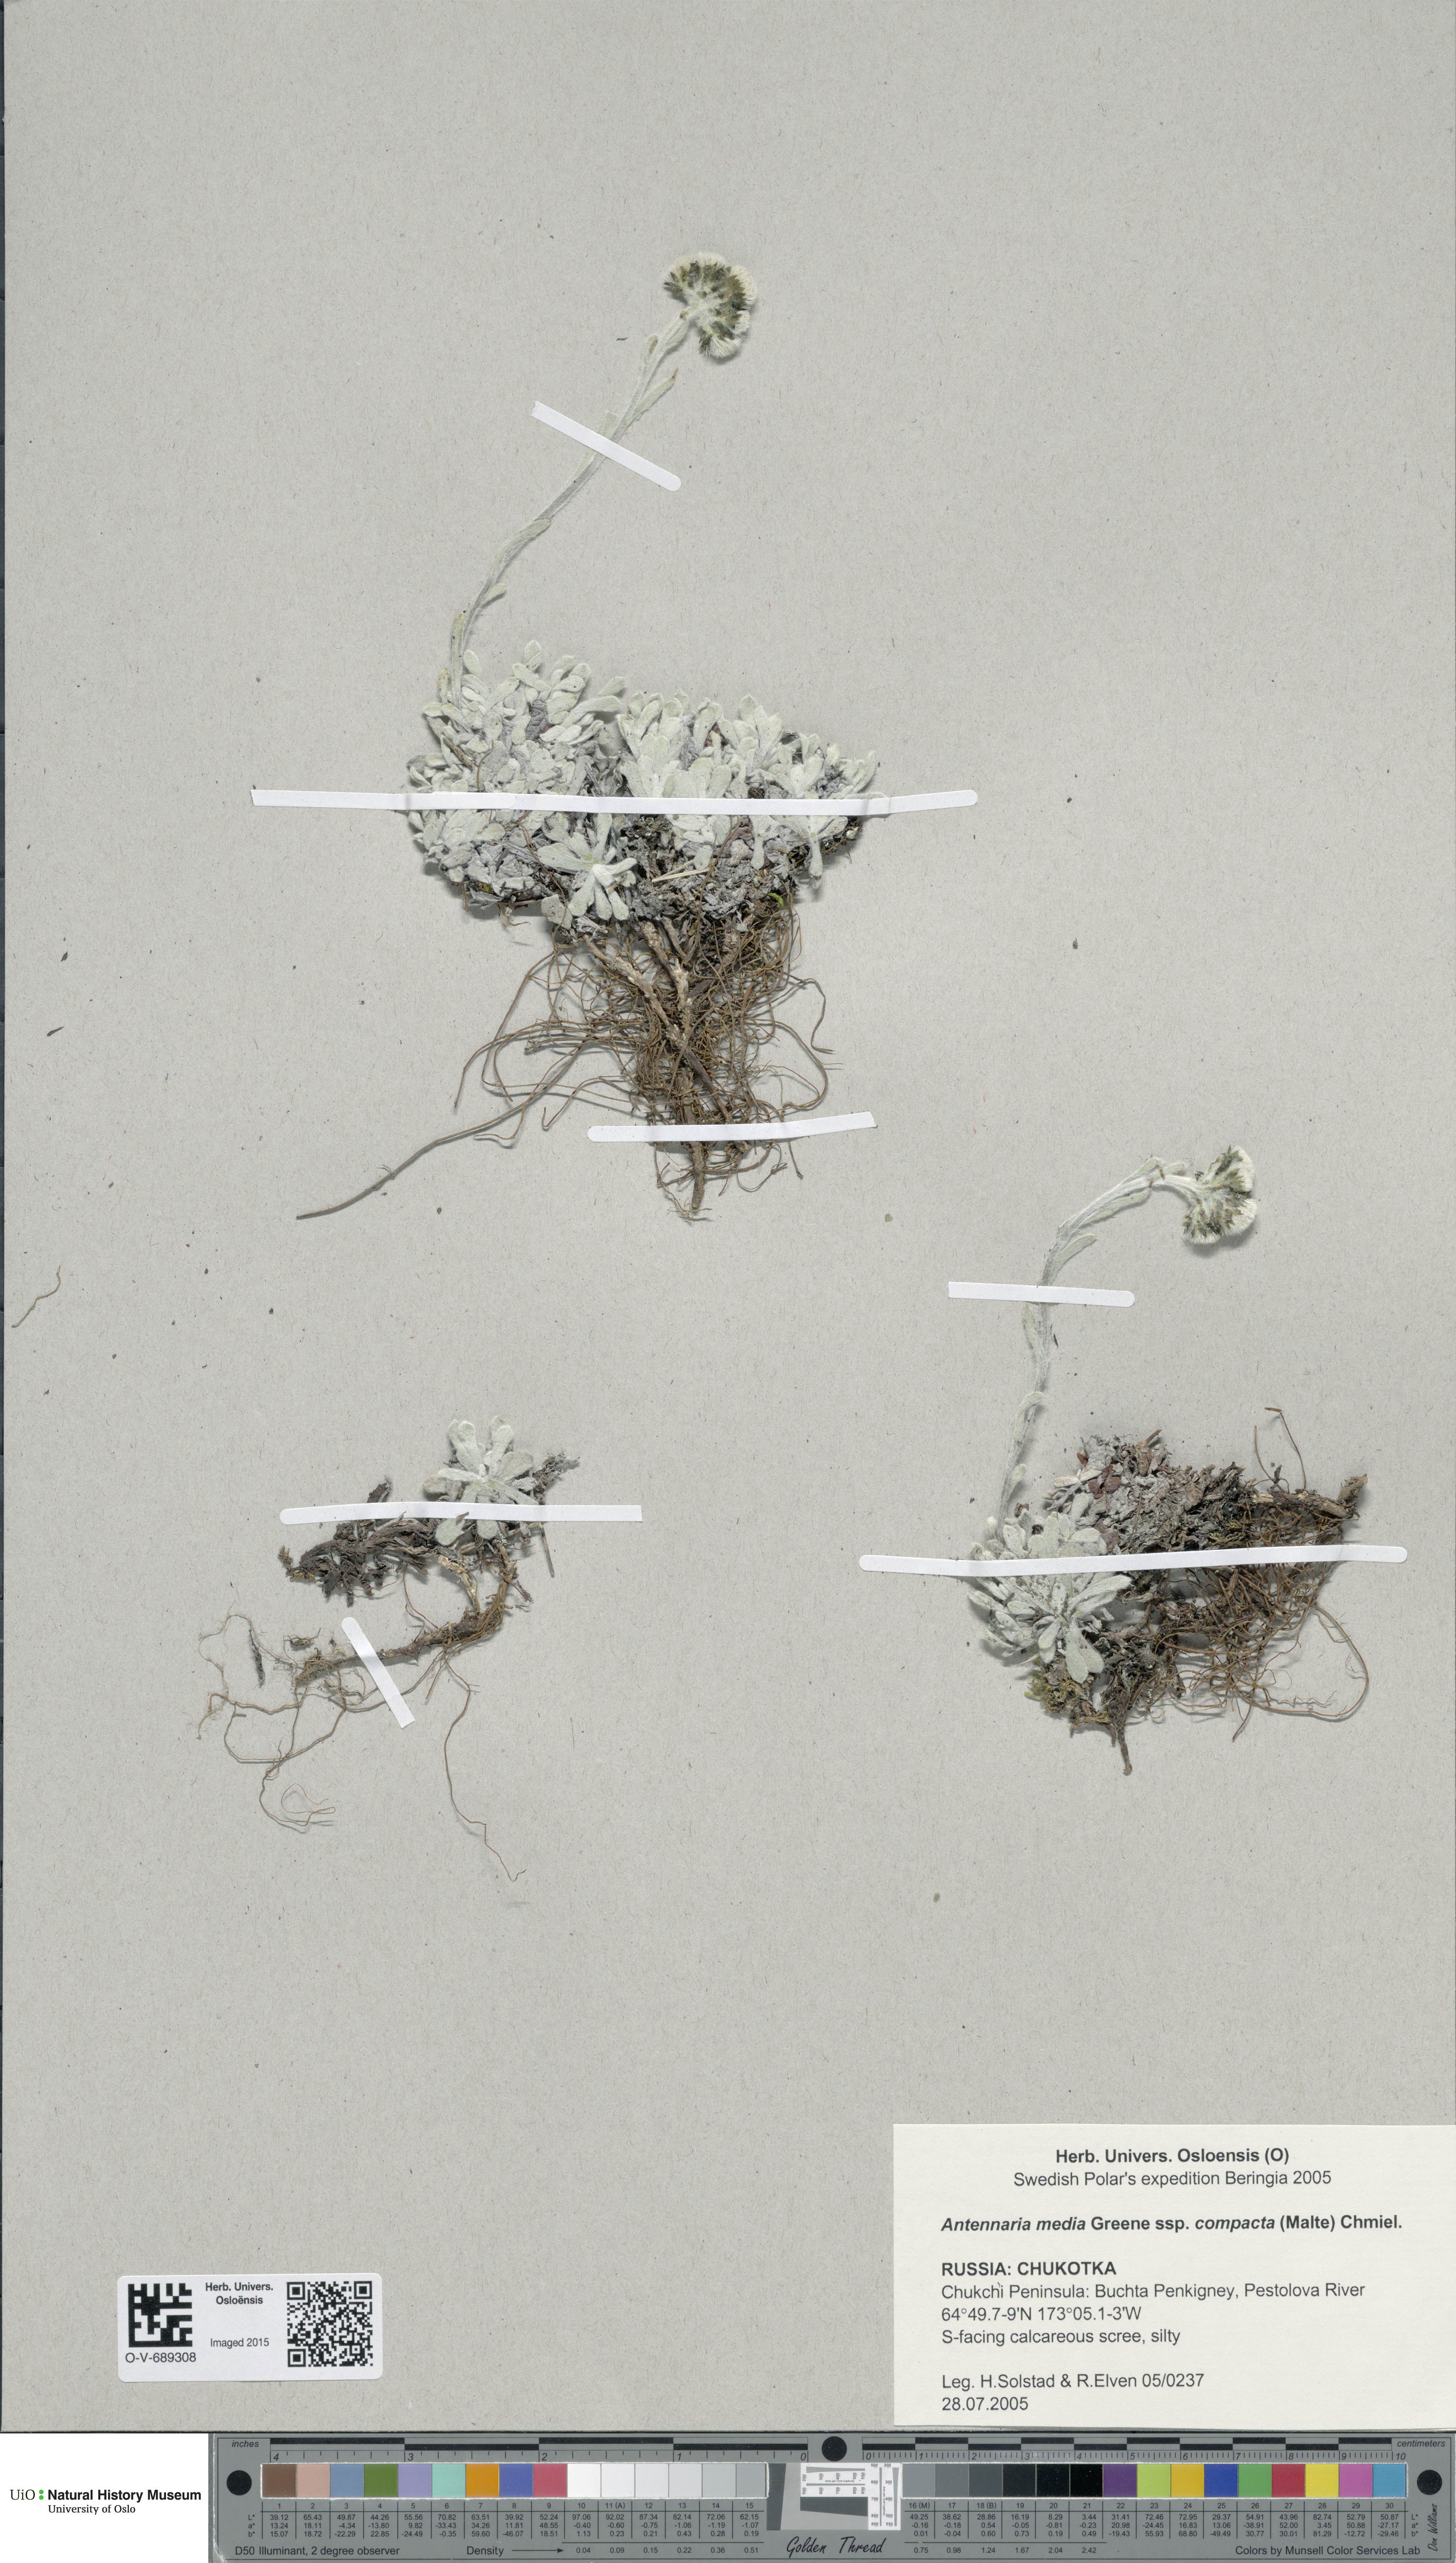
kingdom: Plantae
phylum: Tracheophyta
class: Magnoliopsida
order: Asterales
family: Asteraceae
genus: Antennaria
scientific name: Antennaria alpina
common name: Alpine pussytoes
